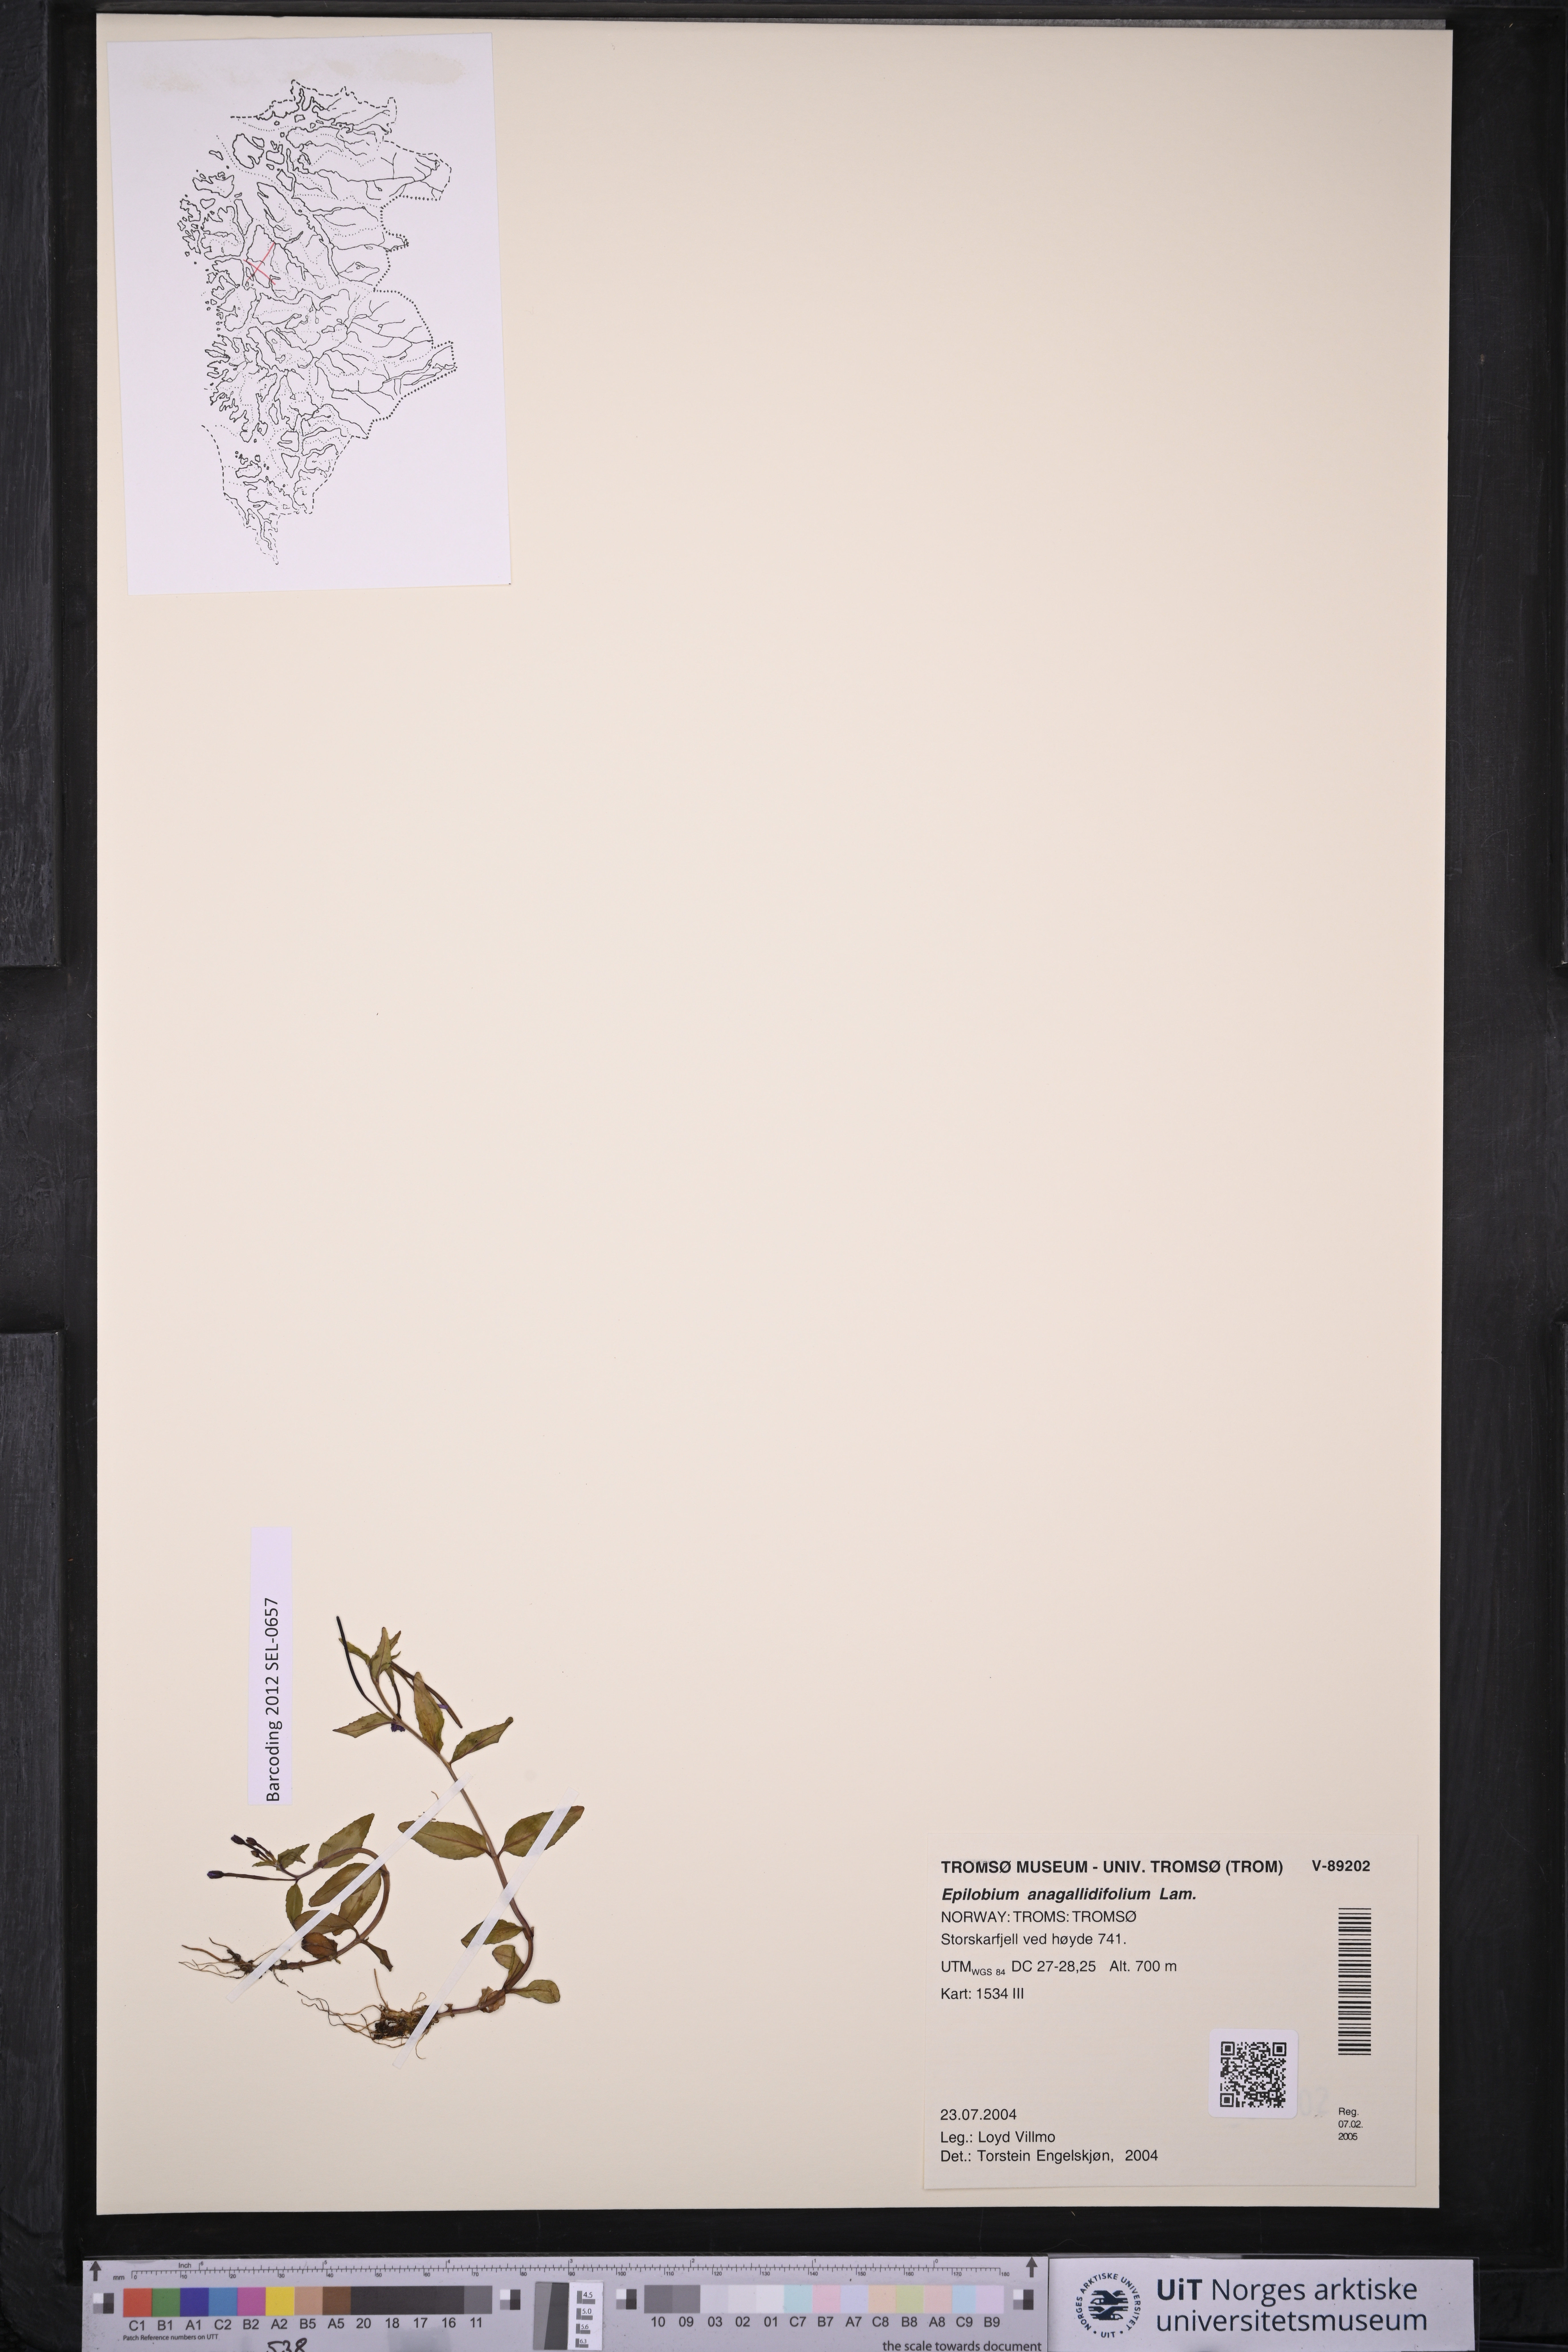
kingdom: Plantae
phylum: Tracheophyta
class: Magnoliopsida
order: Myrtales
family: Onagraceae
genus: Epilobium
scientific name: Epilobium anagallidifolium
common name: Alpine willowherb
